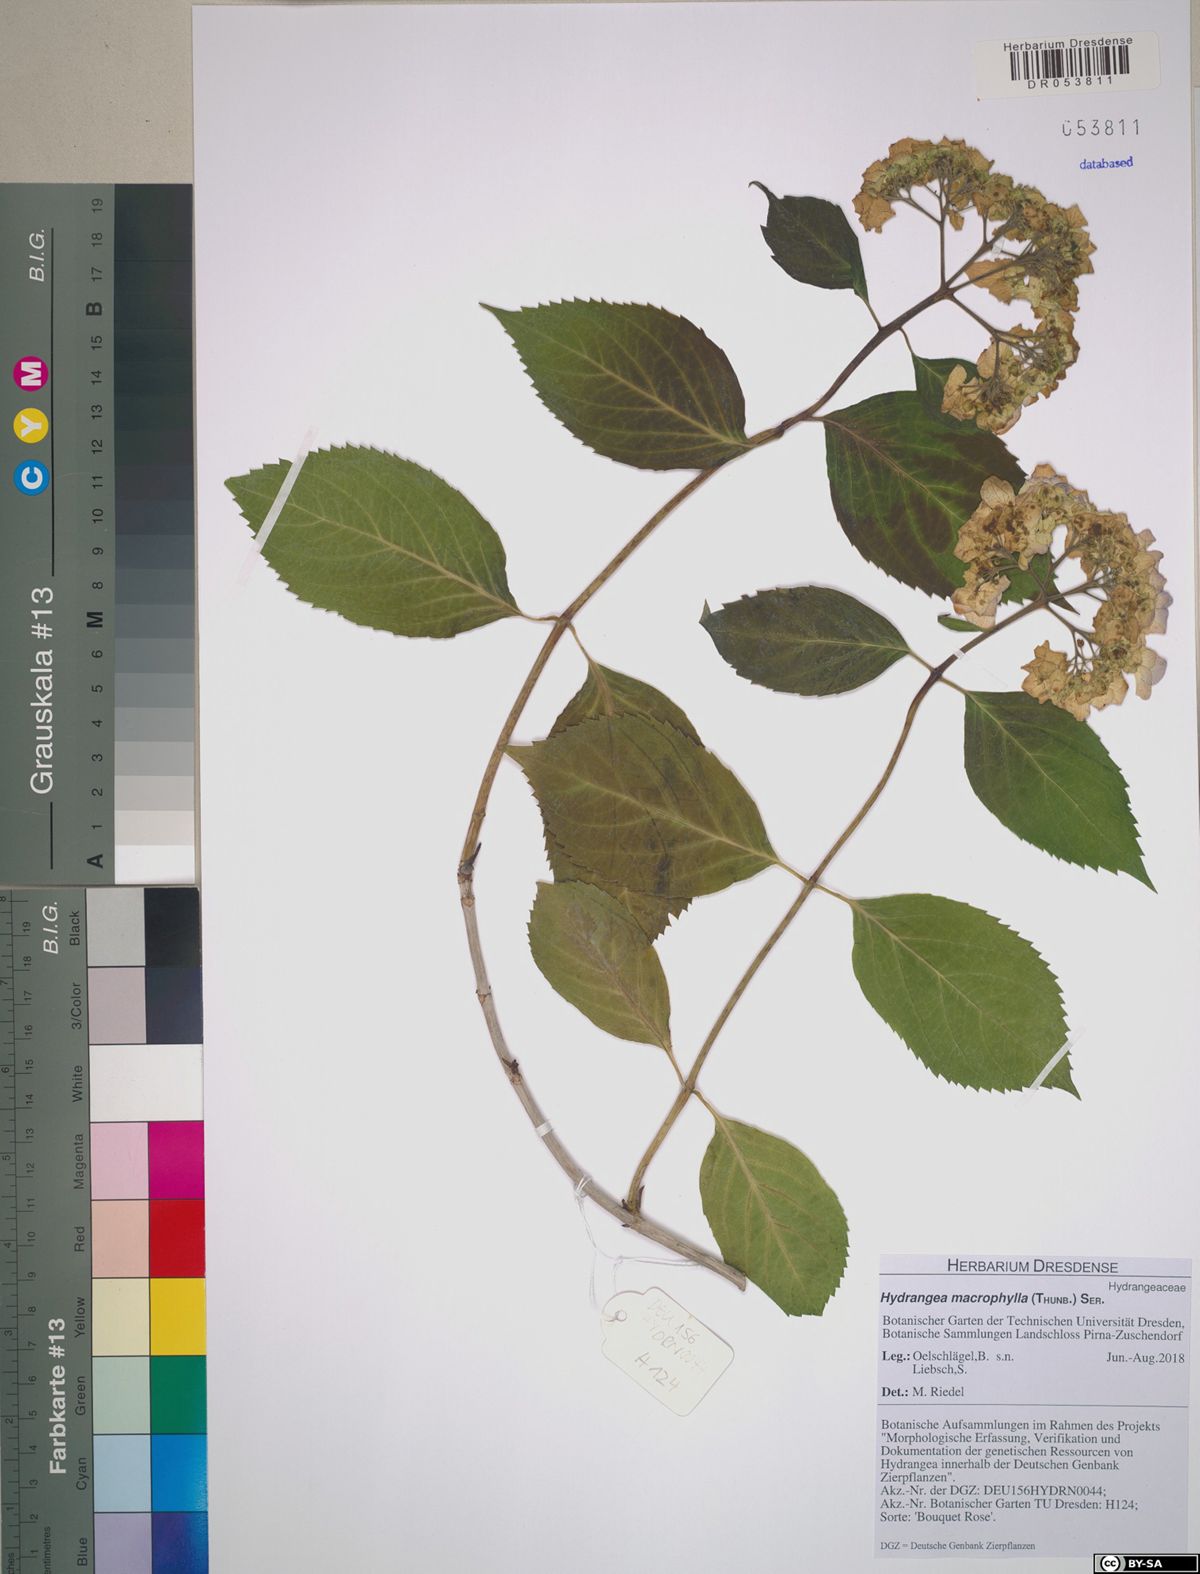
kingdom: Plantae
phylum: Tracheophyta
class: Magnoliopsida
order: Cornales
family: Hydrangeaceae
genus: Hydrangea
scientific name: Hydrangea macrophylla
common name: Hydrangea
